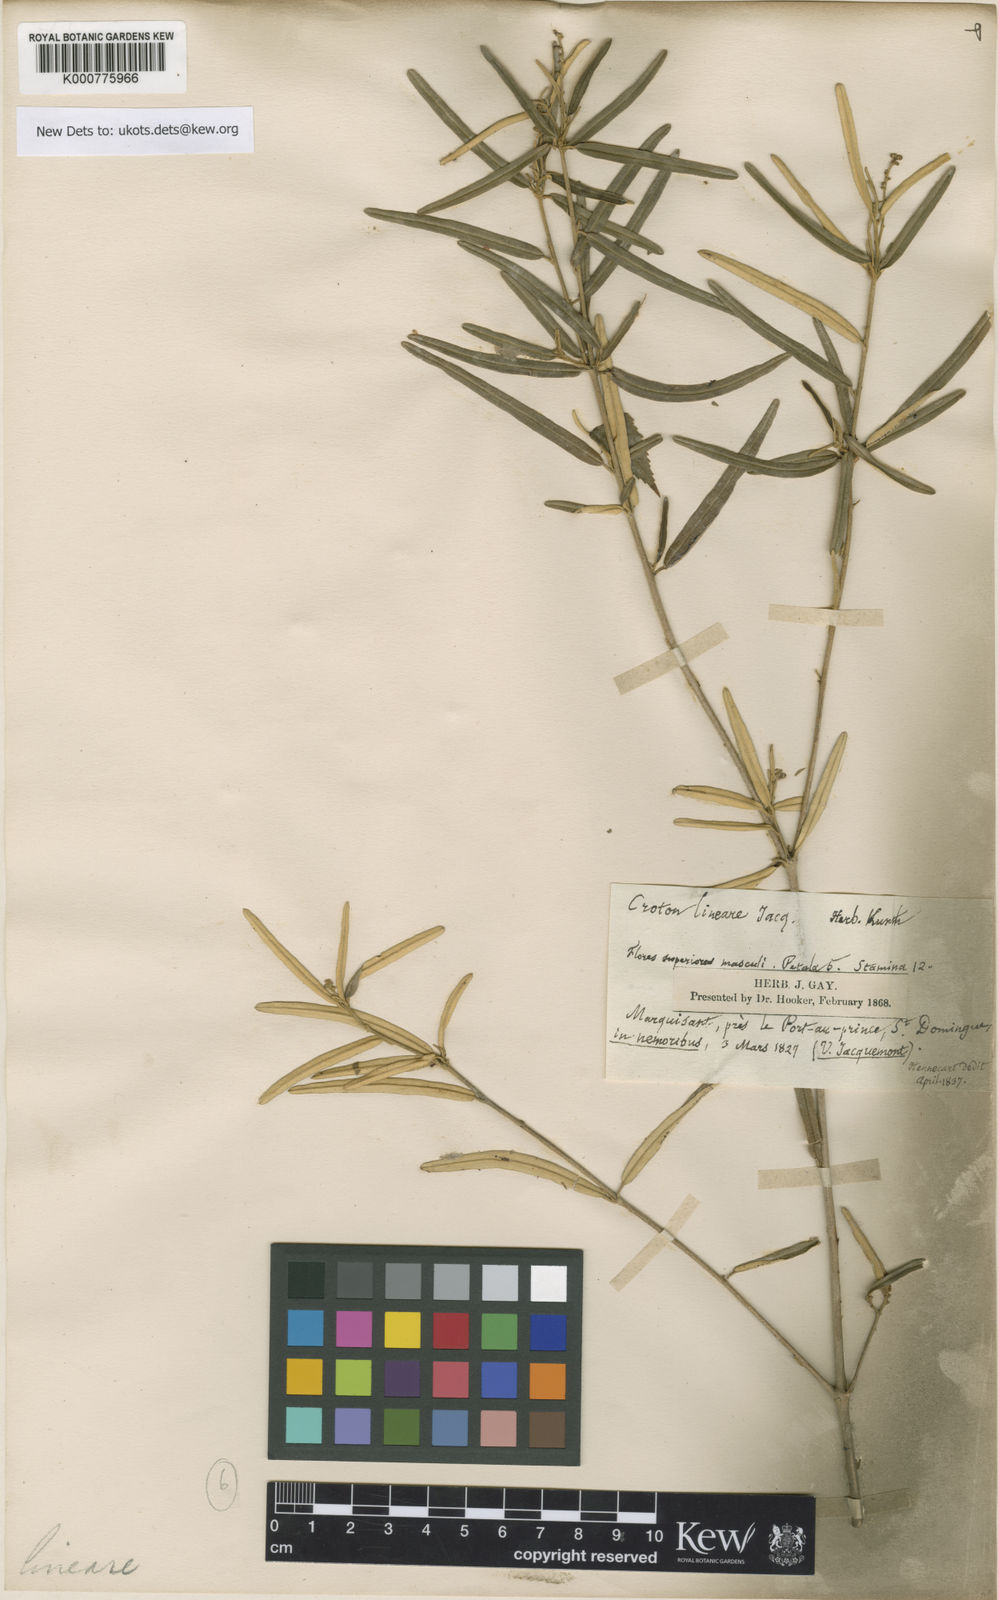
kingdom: Plantae
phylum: Tracheophyta
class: Magnoliopsida
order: Malpighiales
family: Euphorbiaceae
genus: Croton
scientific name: Croton linearis
